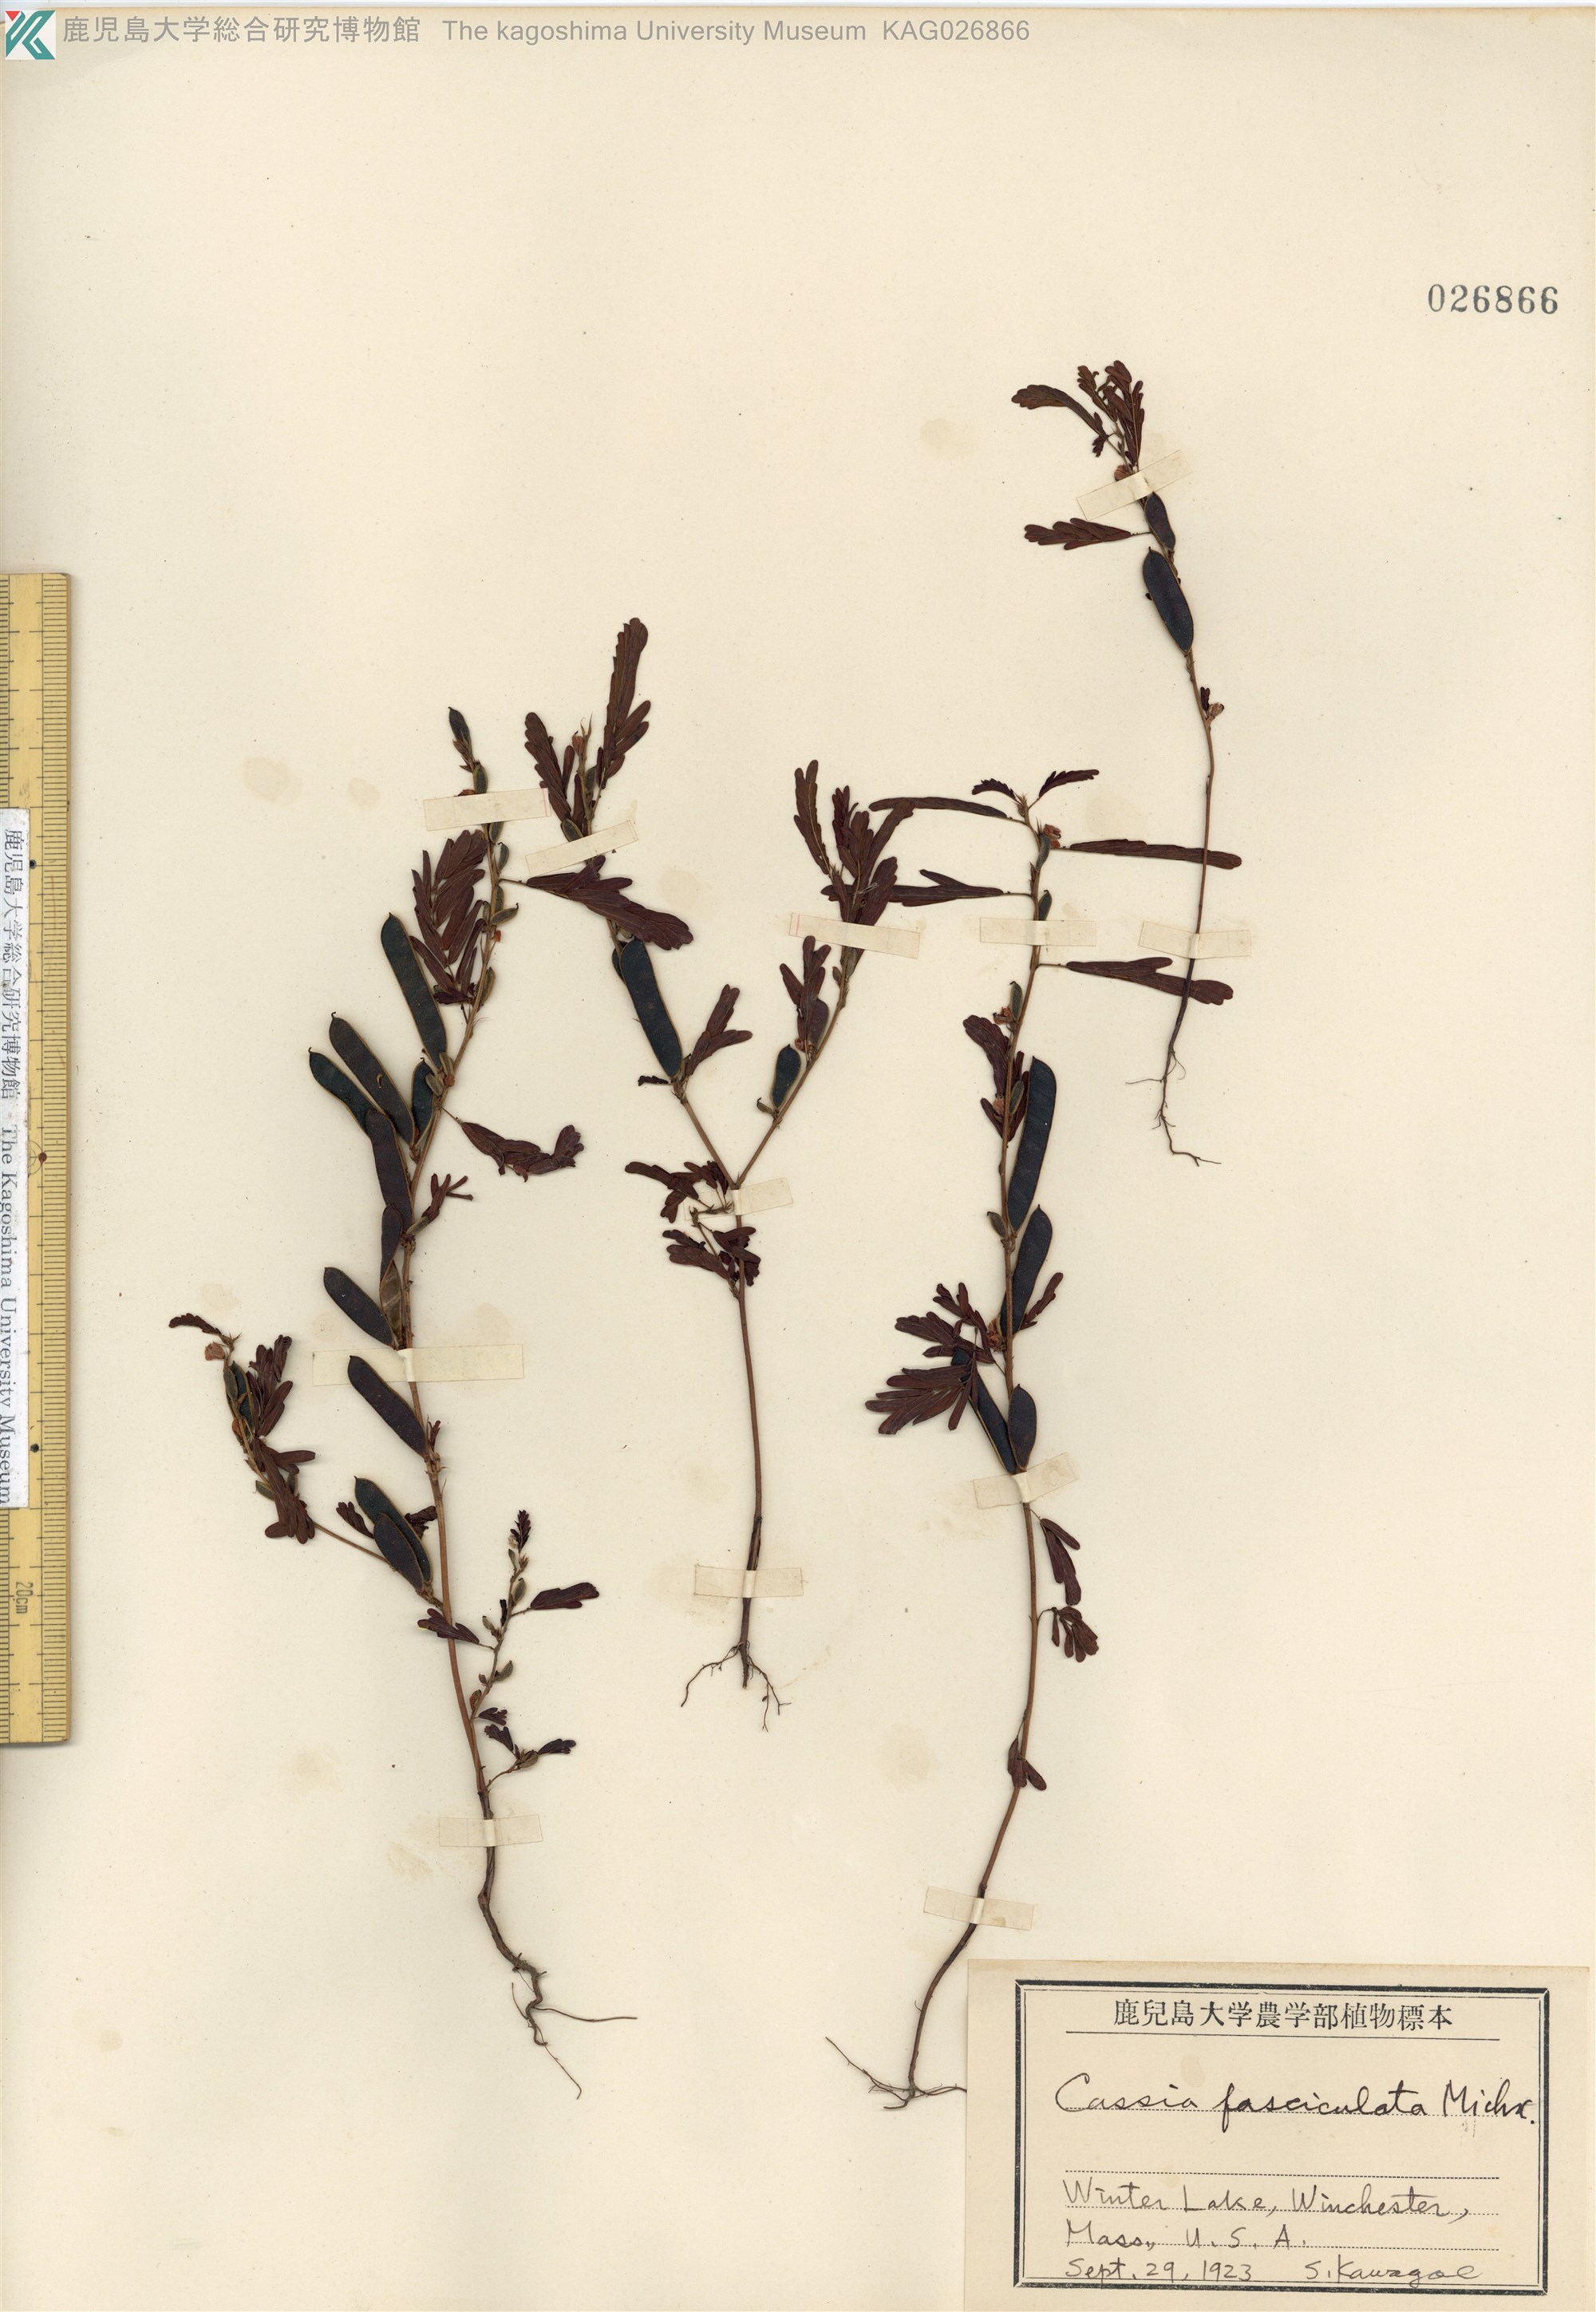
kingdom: Plantae
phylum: Tracheophyta
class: Magnoliopsida
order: Fabales
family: Fabaceae
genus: Chamaecrista
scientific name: Chamaecrista fasciculata
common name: Golden cassia
